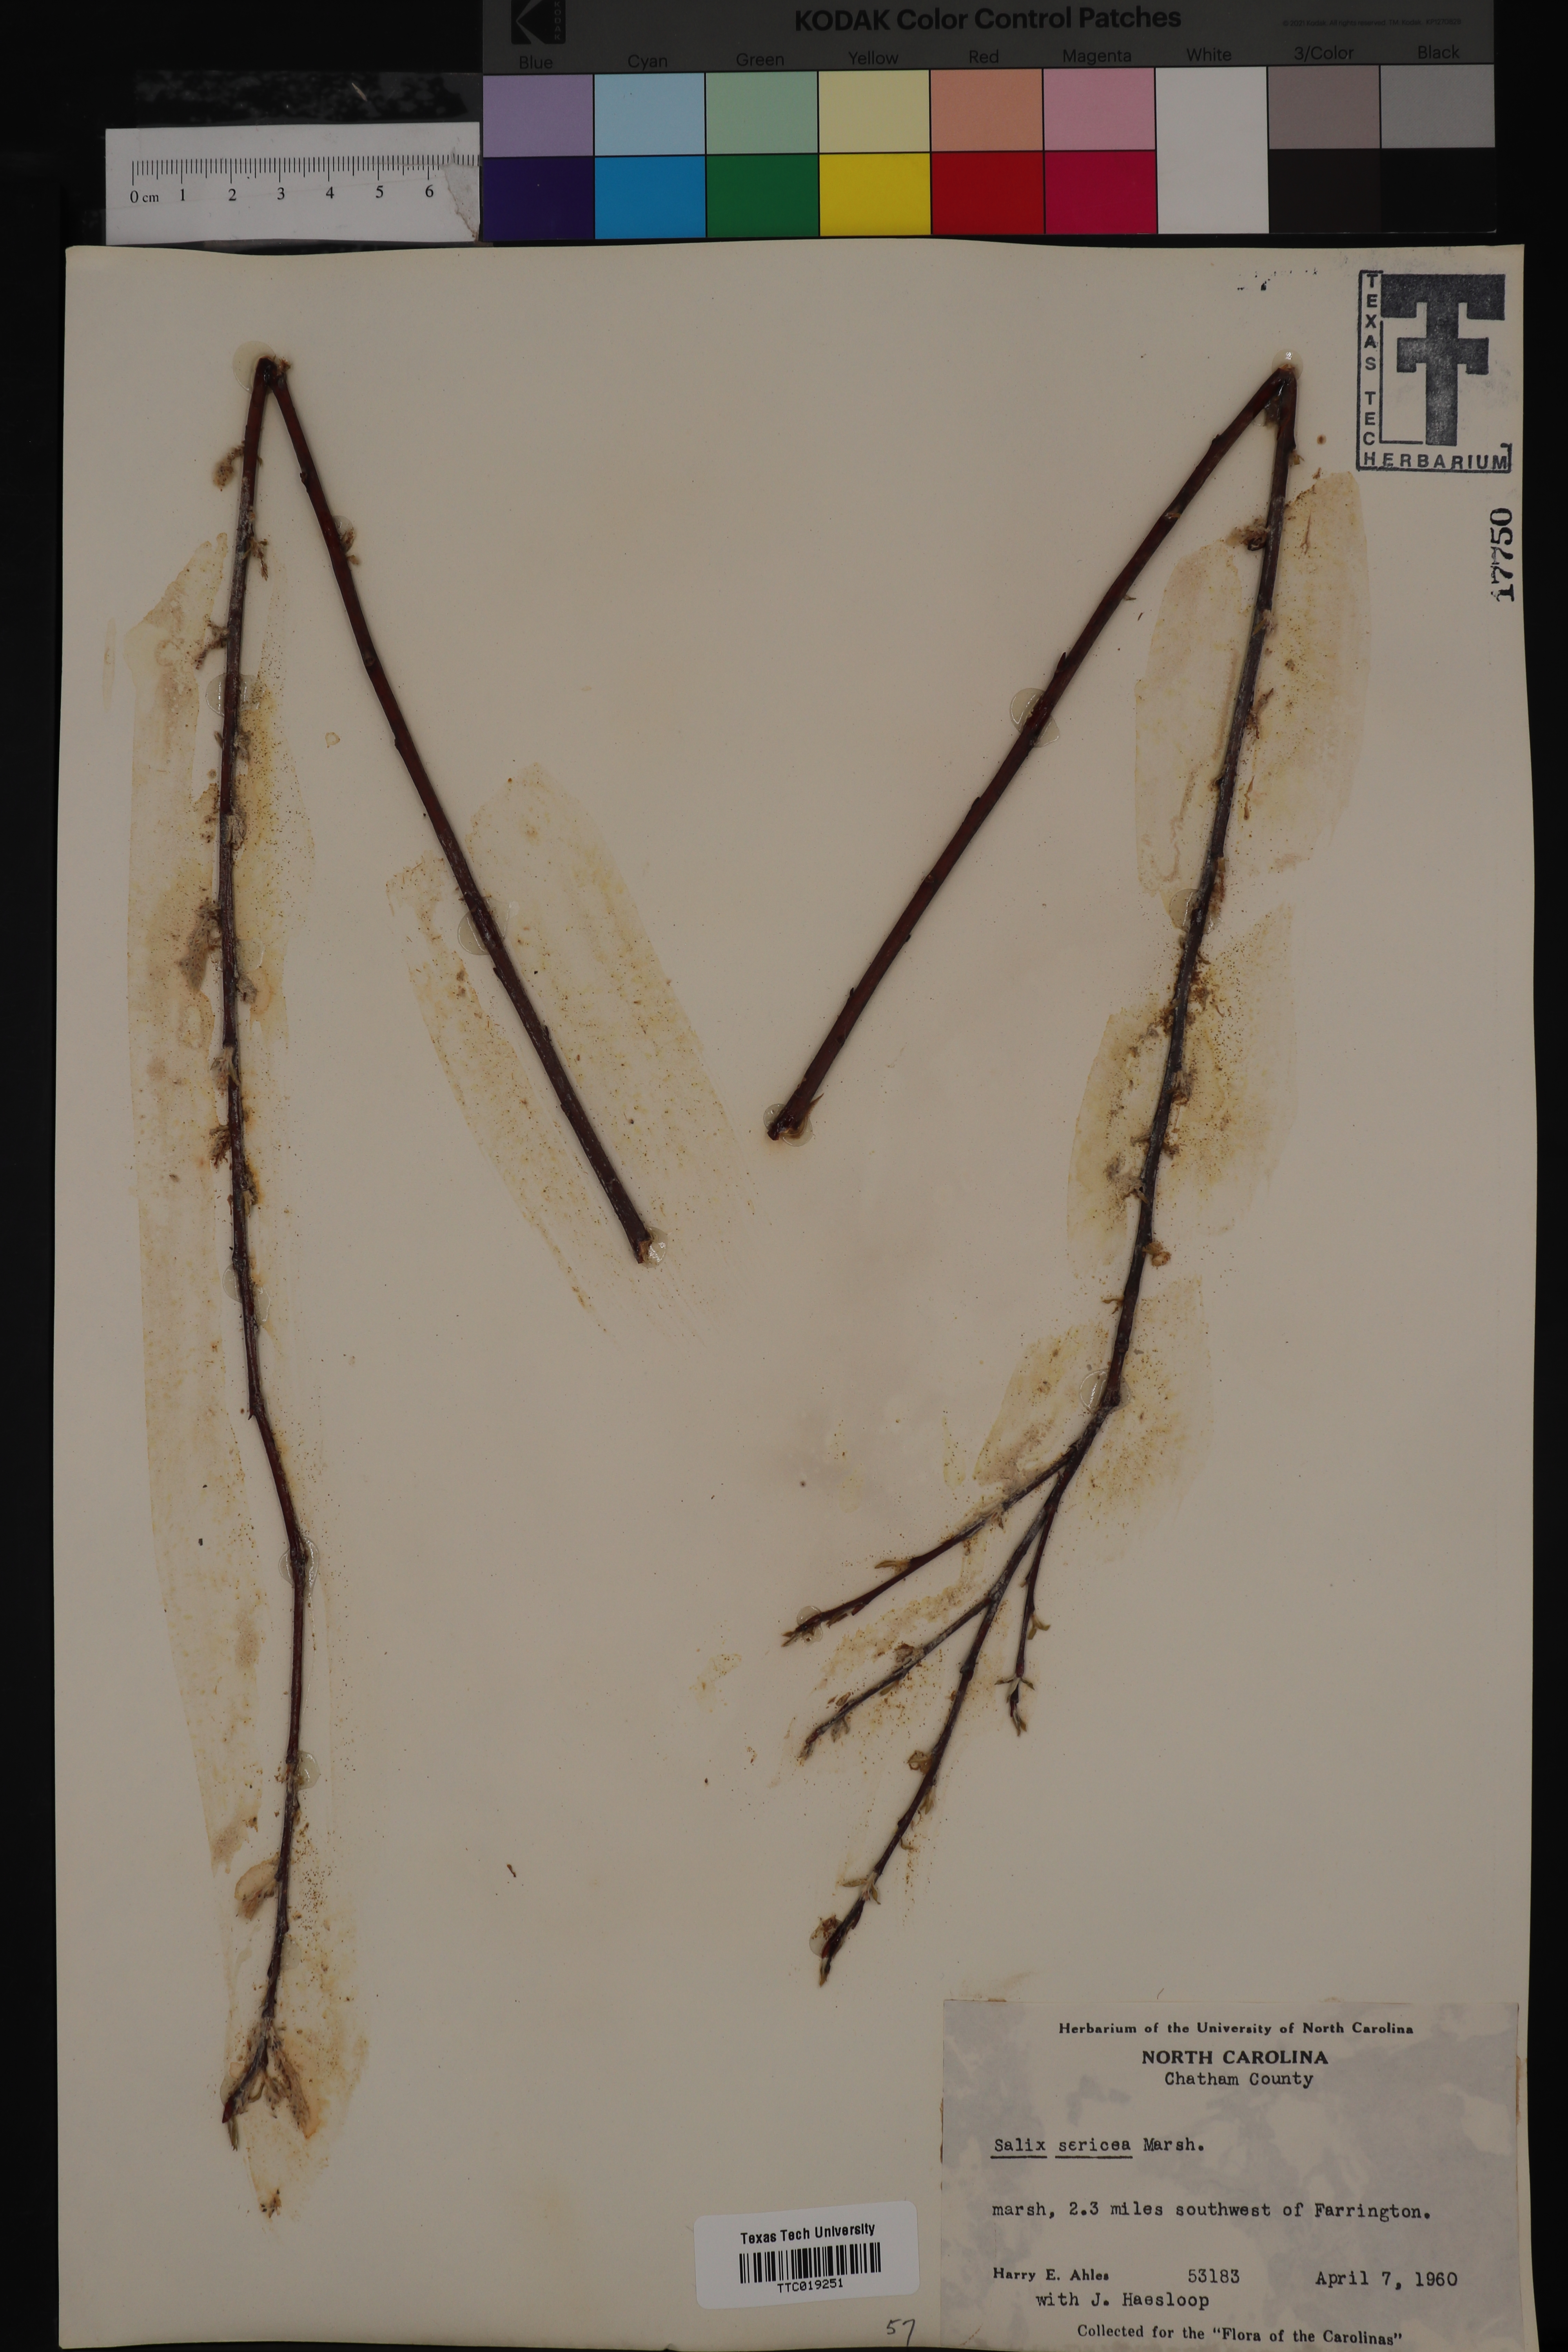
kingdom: Plantae
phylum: Tracheophyta
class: Magnoliopsida
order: Malpighiales
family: Salicaceae
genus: Salix
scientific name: Salix sericea
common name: Silky willow
